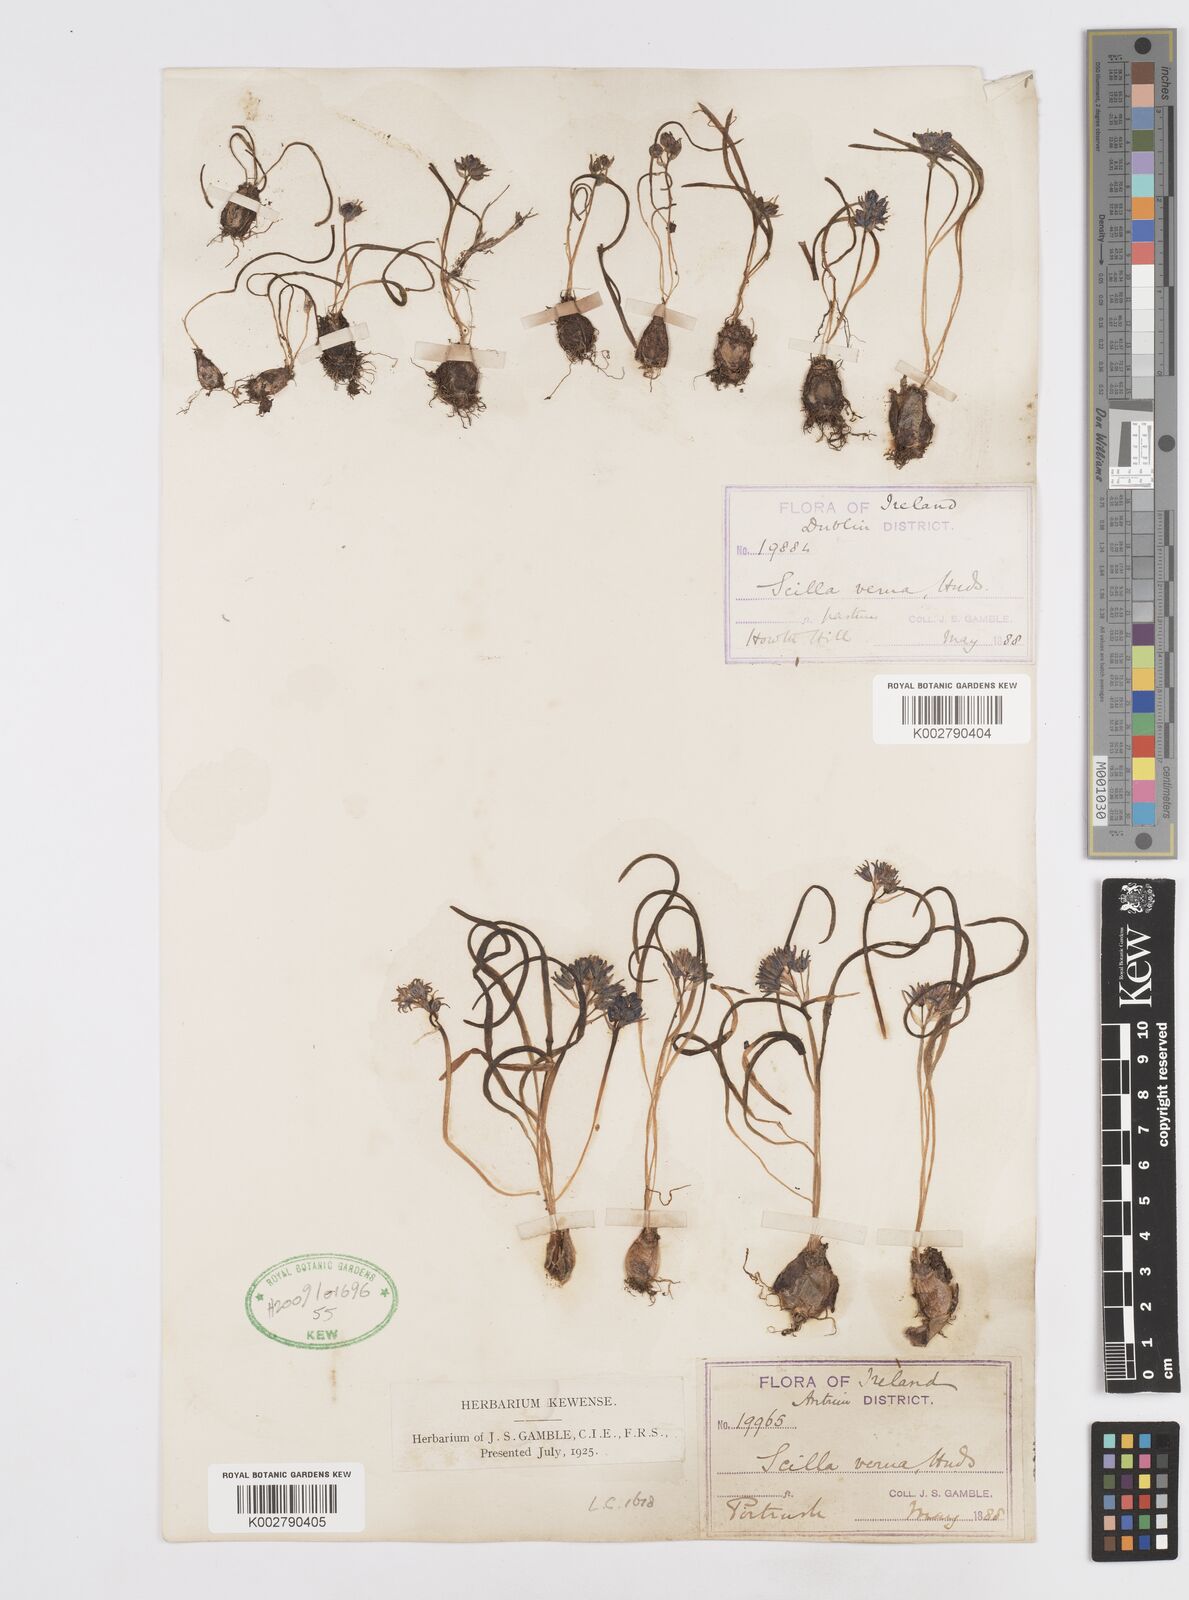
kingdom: Plantae
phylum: Tracheophyta
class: Liliopsida
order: Asparagales
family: Asparagaceae
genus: Scilla
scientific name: Scilla verna
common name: Spring squill
